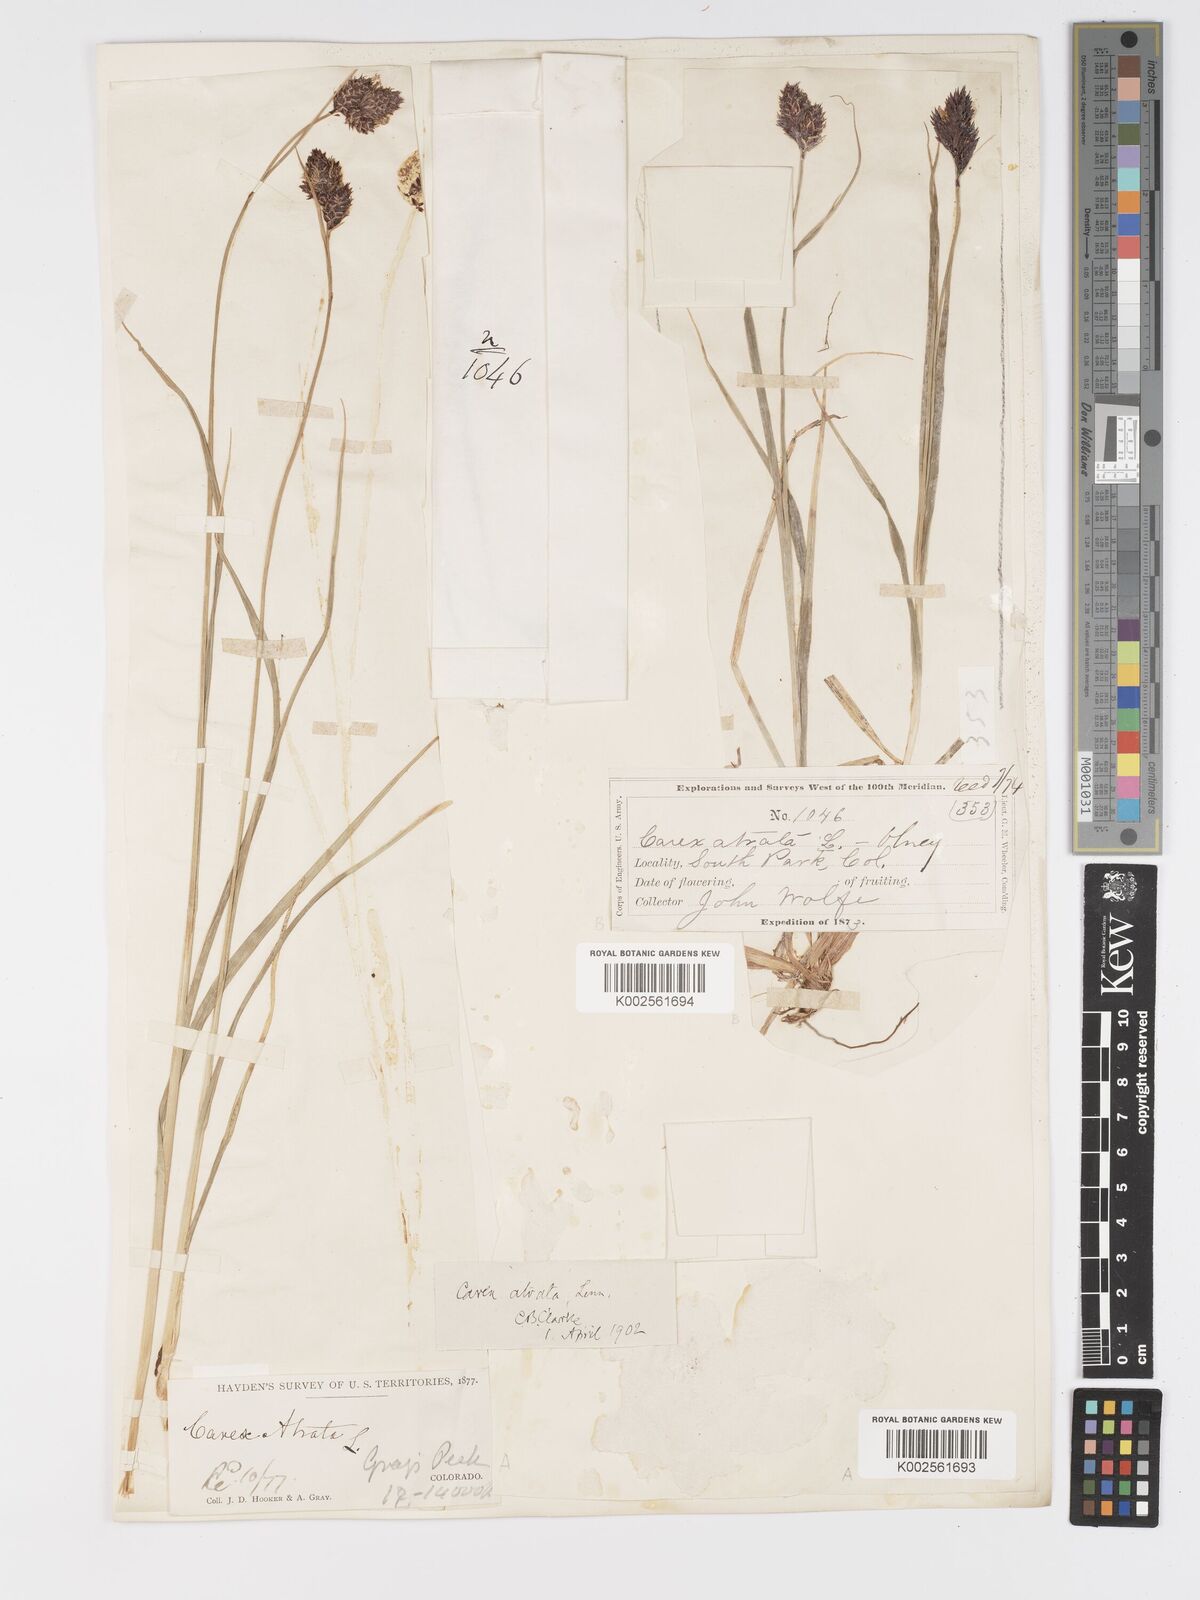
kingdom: Plantae
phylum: Tracheophyta
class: Liliopsida
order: Poales
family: Cyperaceae
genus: Carex
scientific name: Carex chalciolepis
